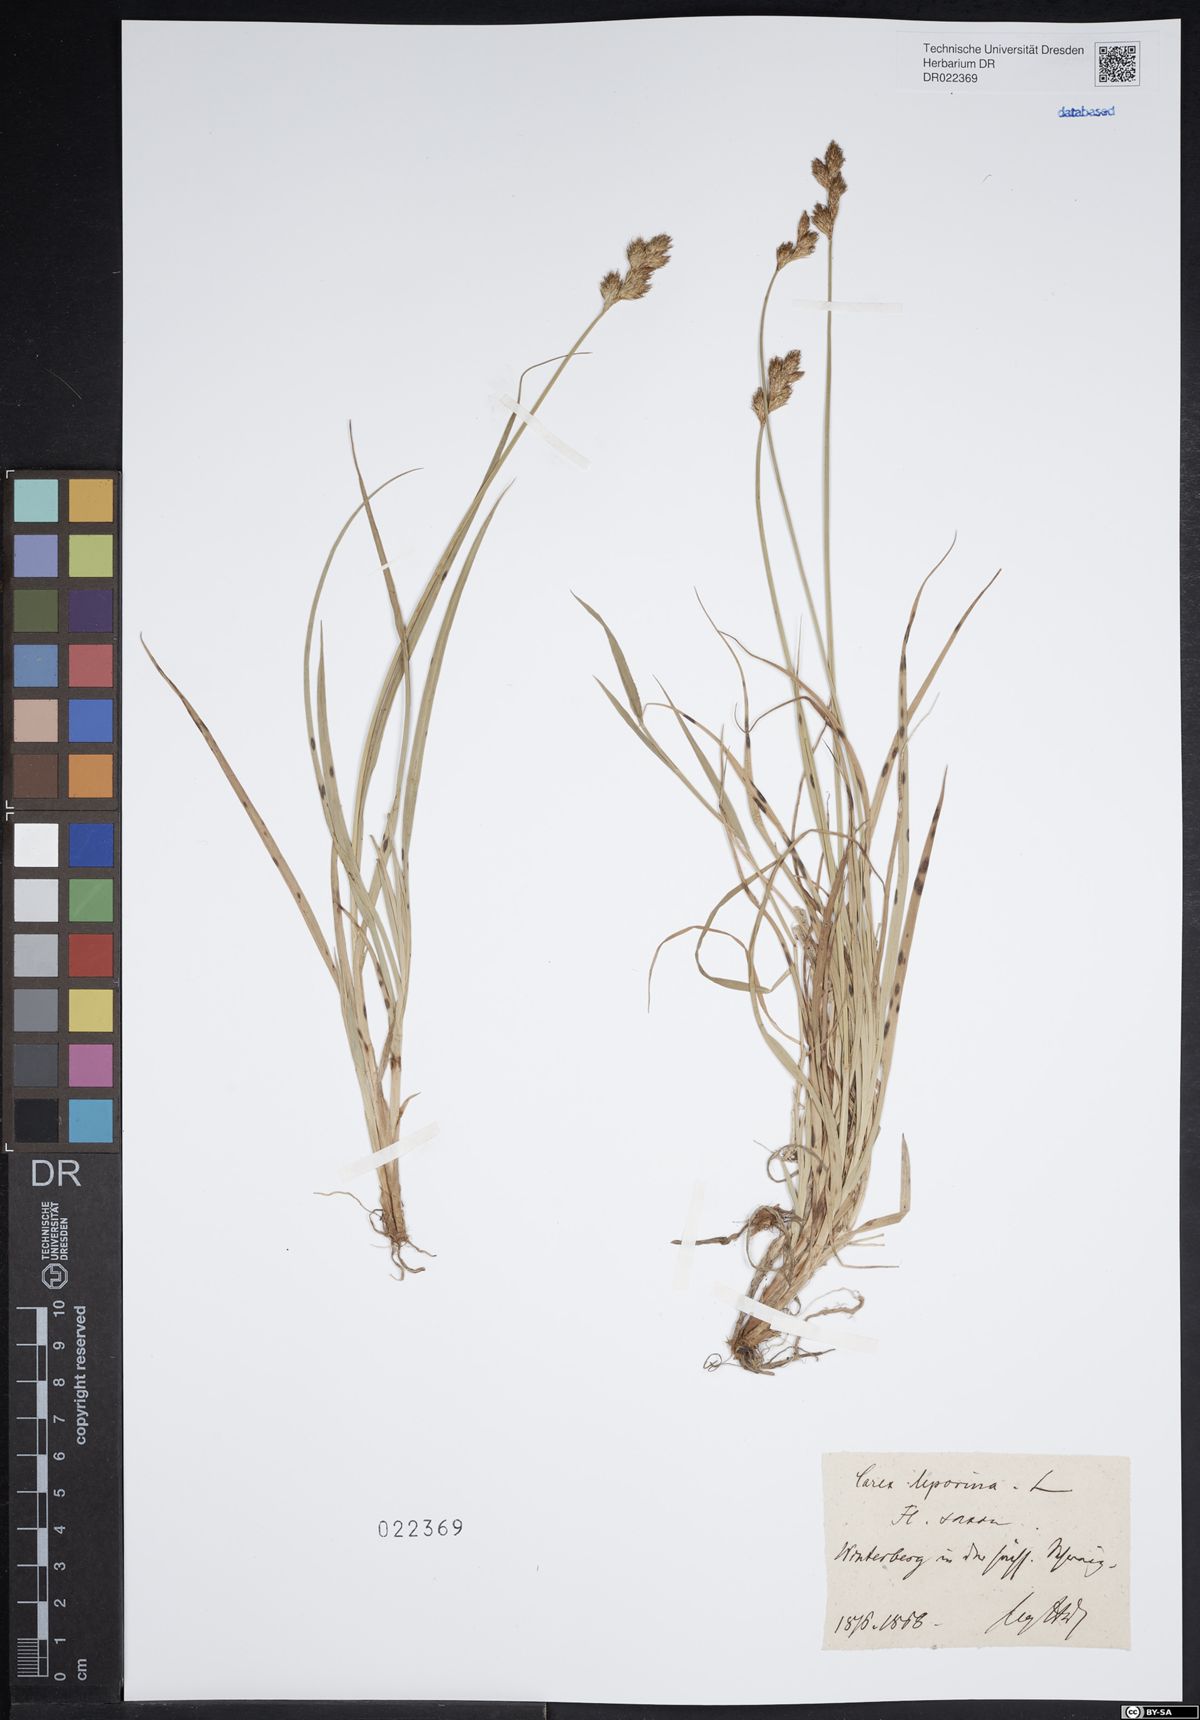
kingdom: Plantae
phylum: Tracheophyta
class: Liliopsida
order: Poales
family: Cyperaceae
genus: Carex
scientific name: Carex leporina
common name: Oval sedge
